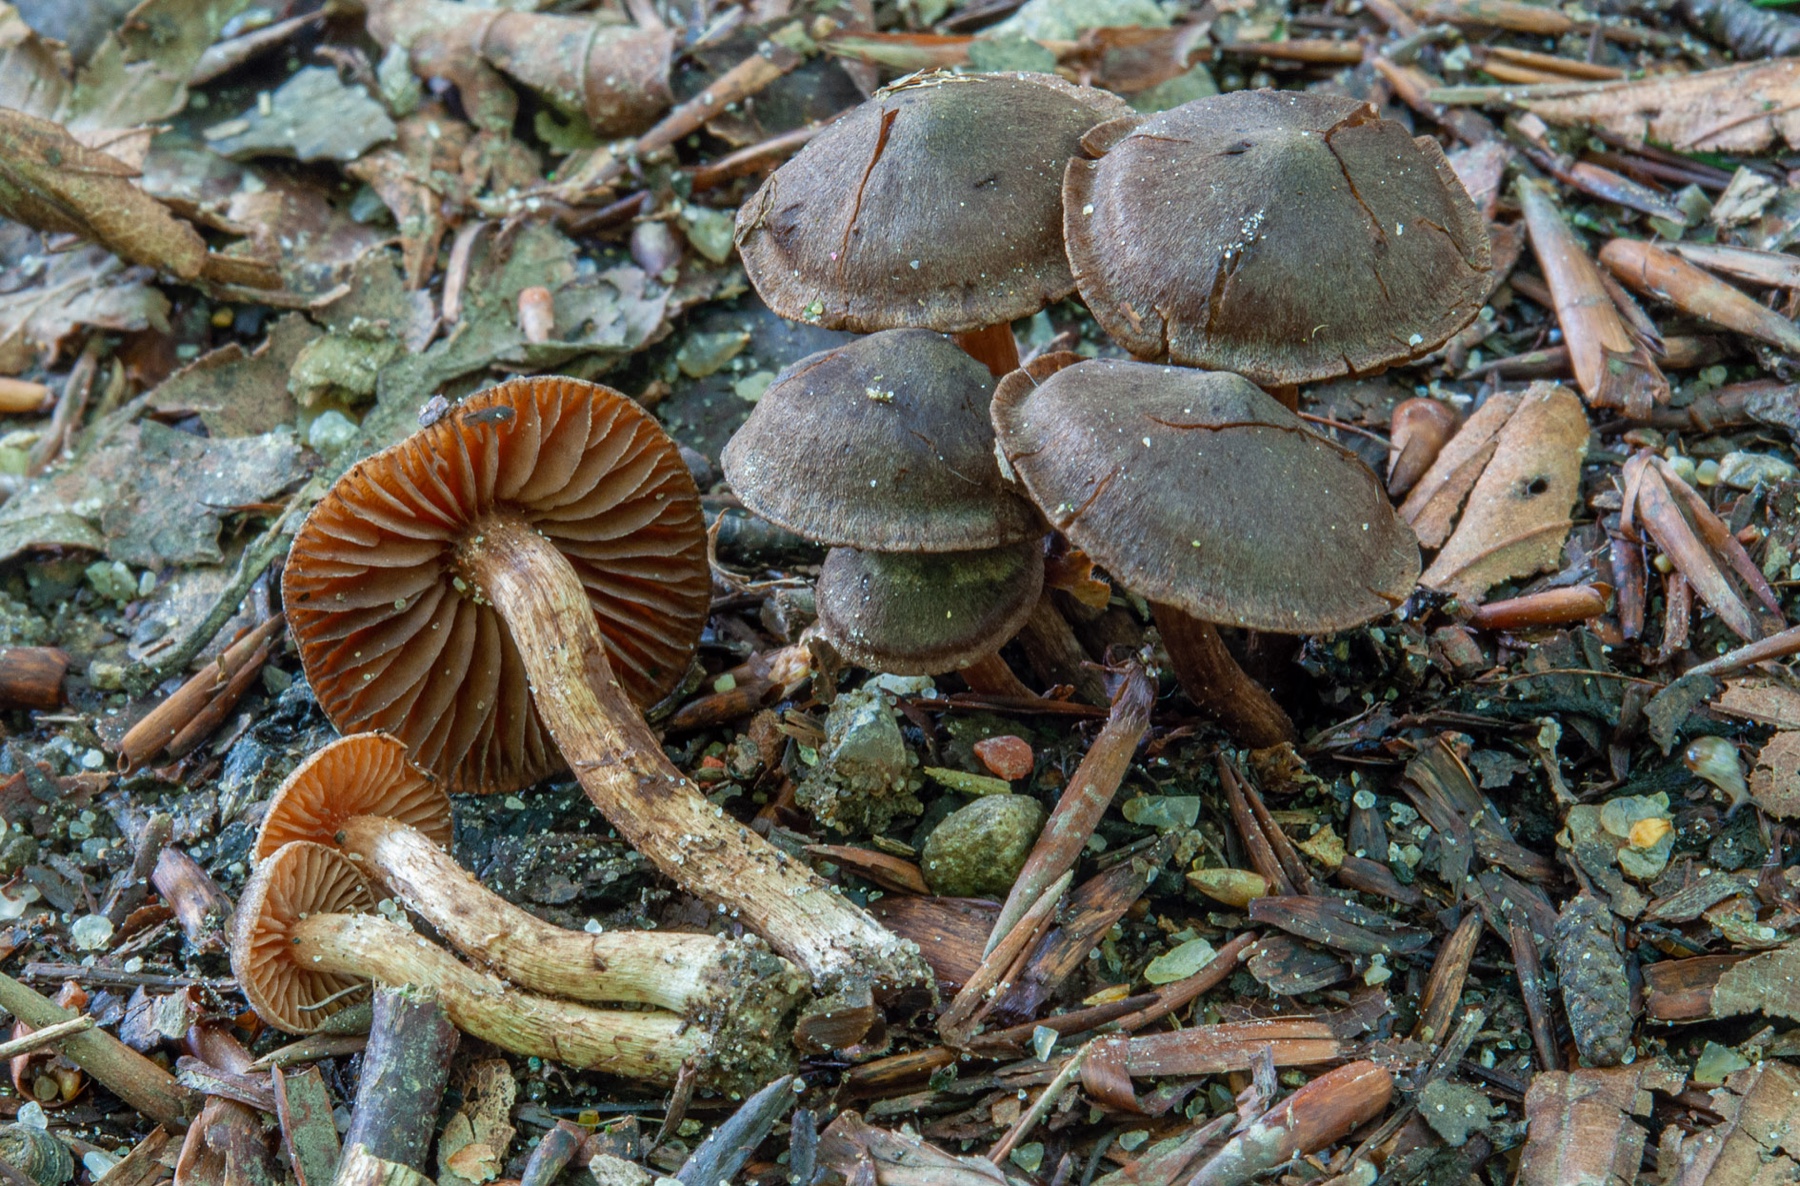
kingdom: Fungi
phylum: Basidiomycota
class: Agaricomycetes
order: Agaricales
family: Cortinariaceae
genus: Cortinarius
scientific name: Cortinarius ammophiloides
